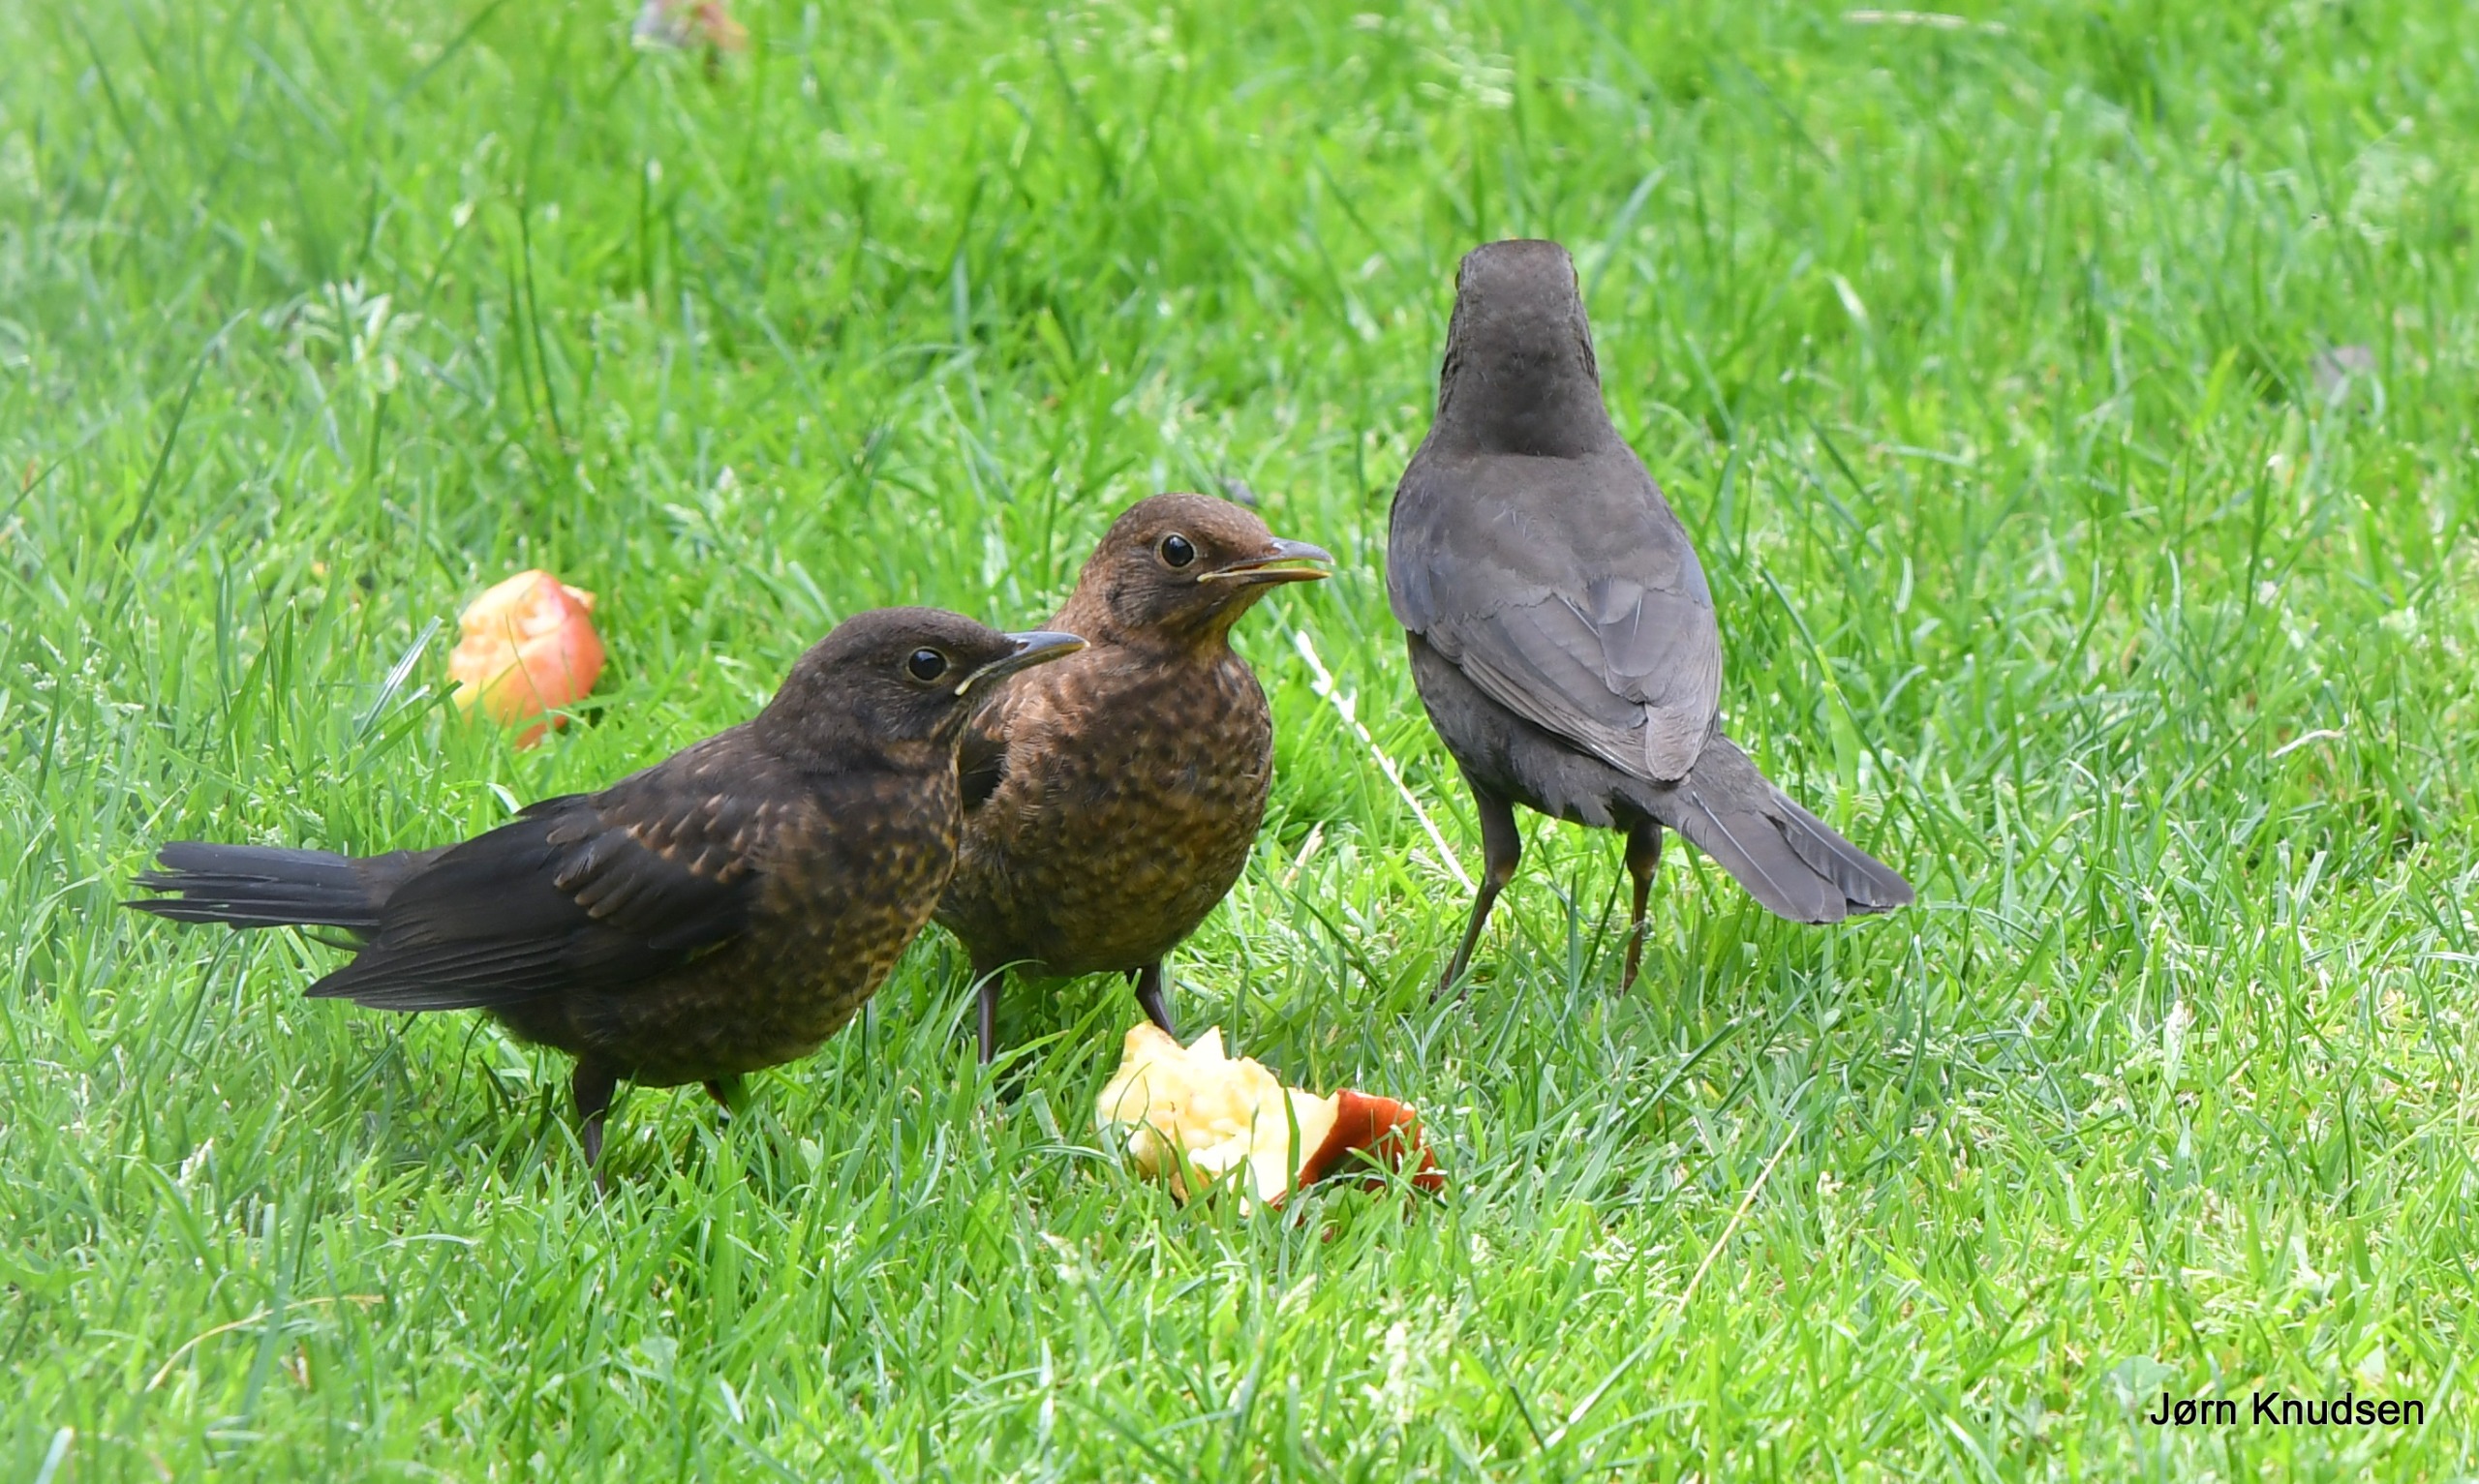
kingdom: Animalia
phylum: Chordata
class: Aves
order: Passeriformes
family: Turdidae
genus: Turdus
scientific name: Turdus merula
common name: Solsort
